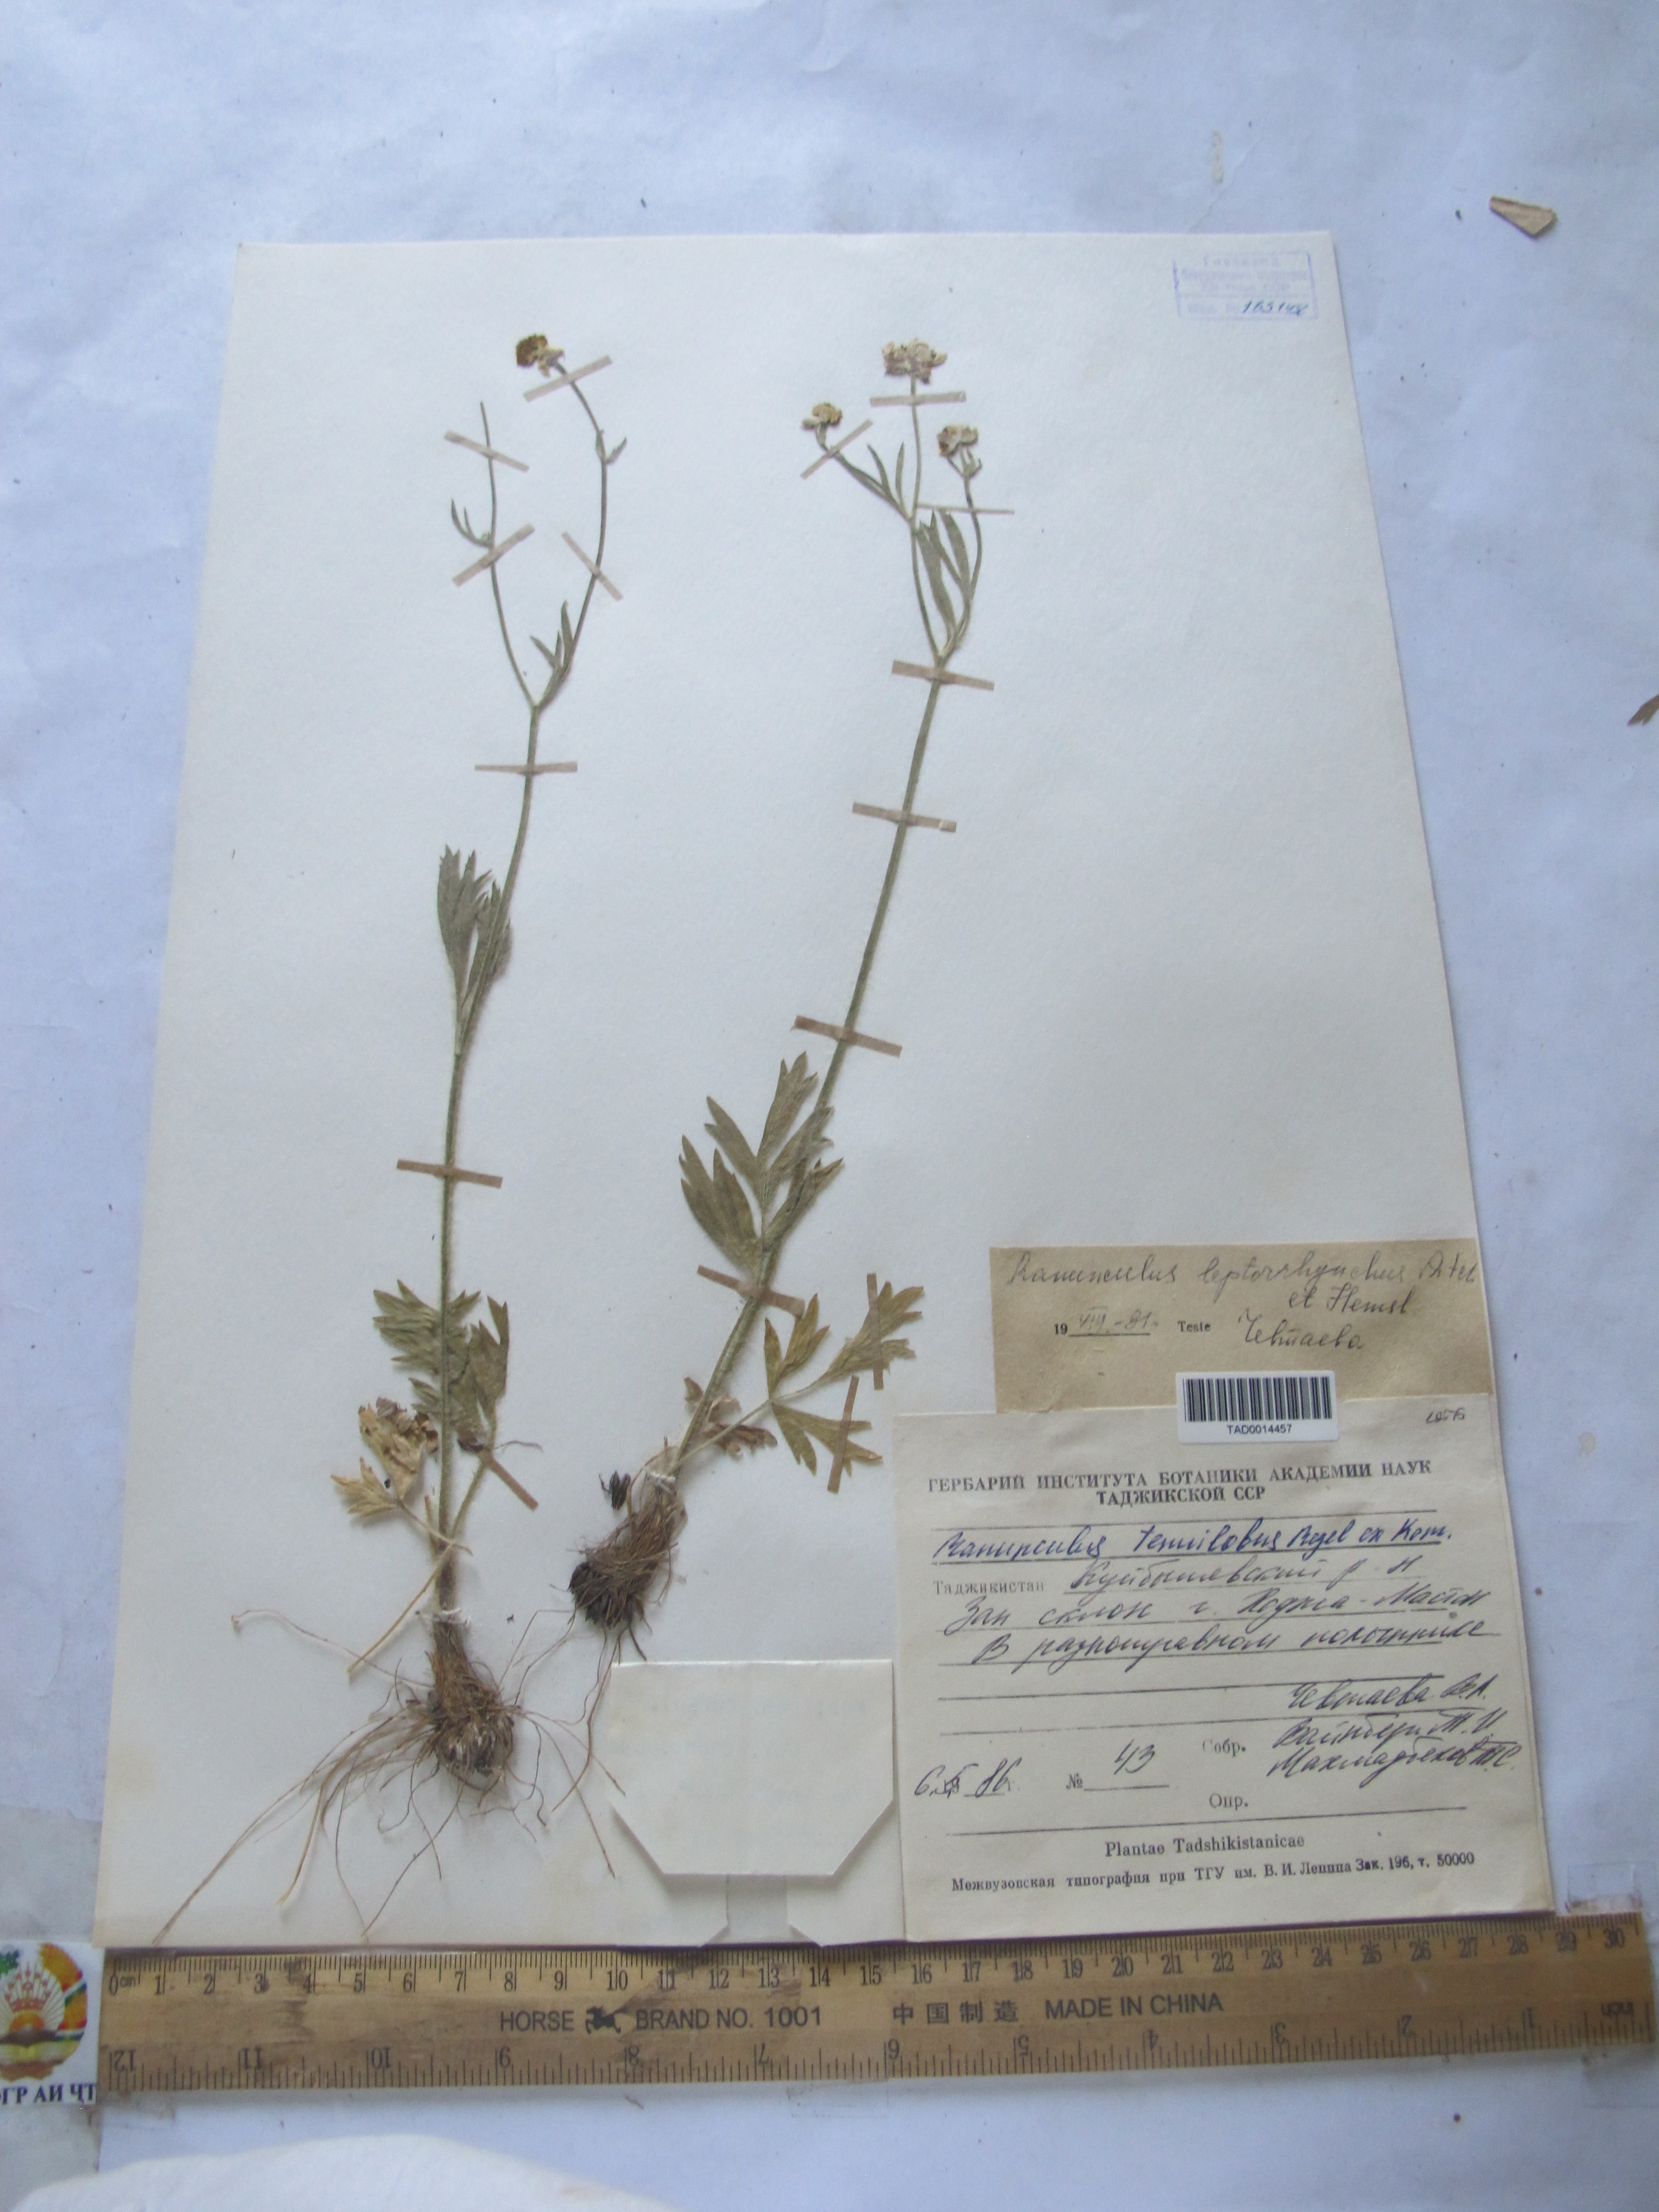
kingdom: Plantae
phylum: Tracheophyta
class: Magnoliopsida
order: Ranunculales
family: Ranunculaceae
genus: Ranunculus
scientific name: Ranunculus tenuilobus
